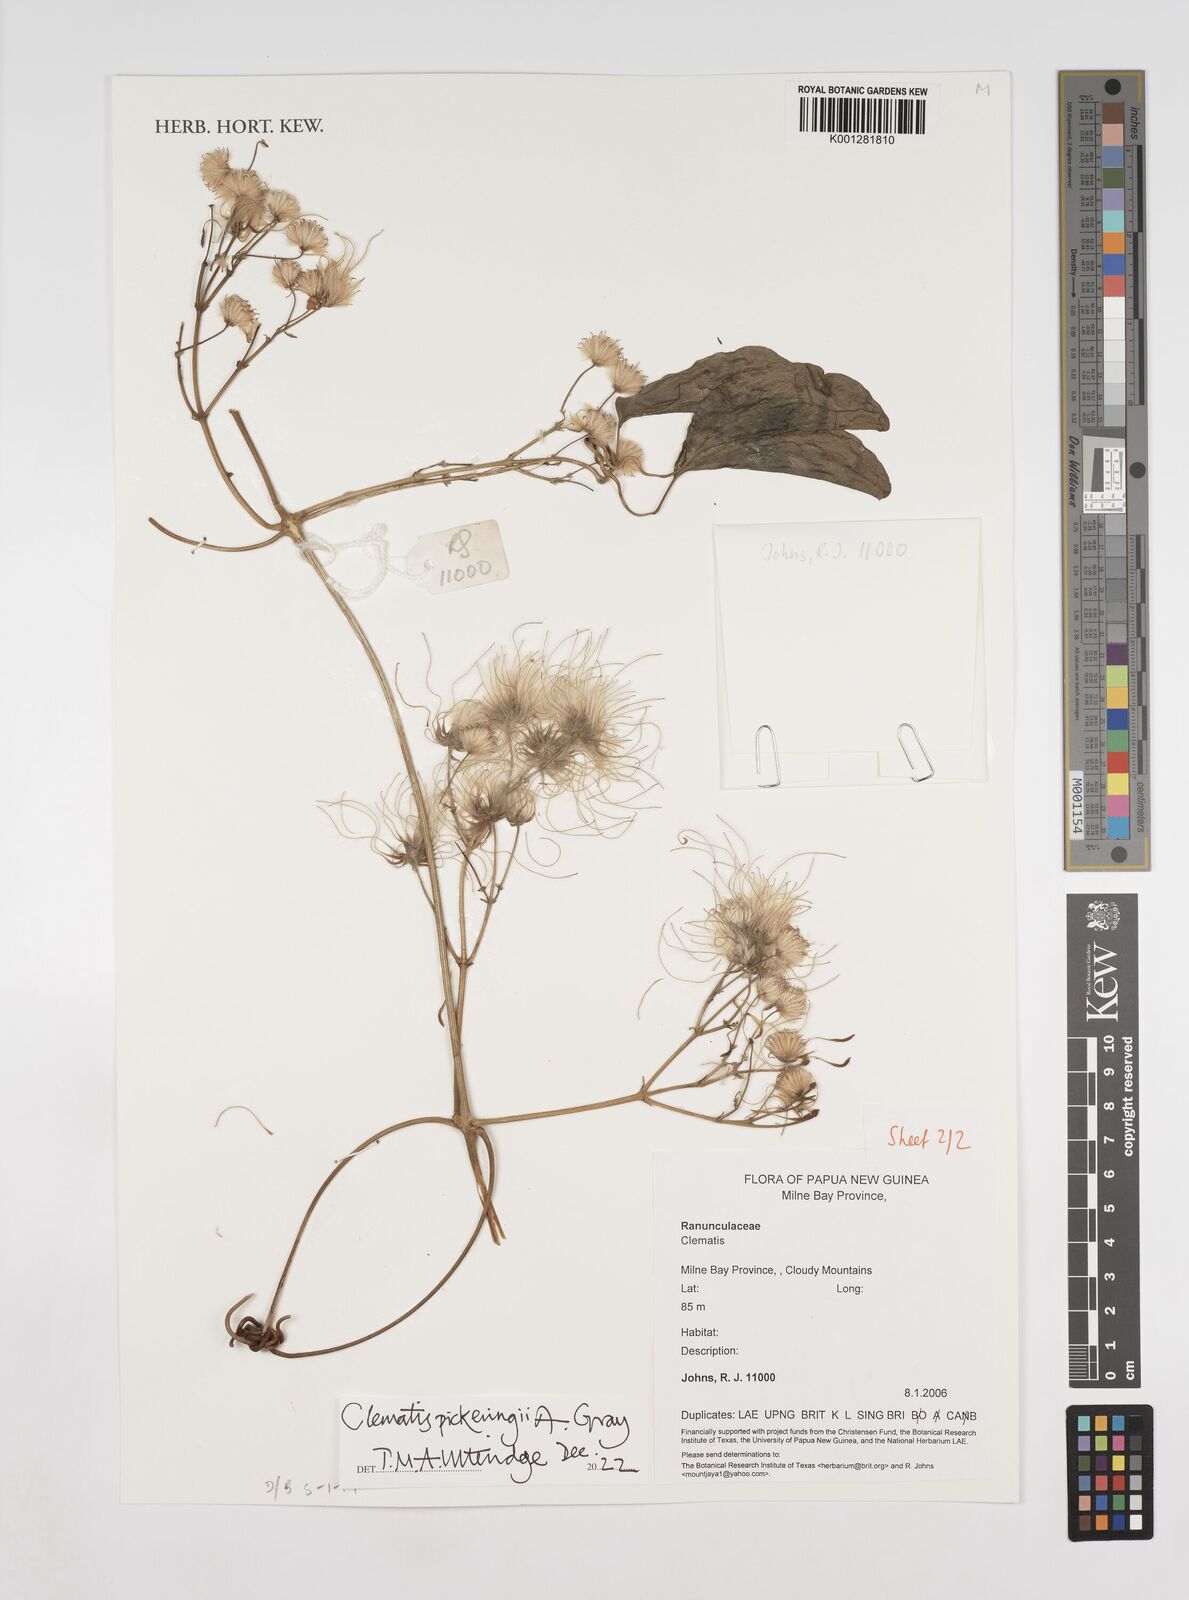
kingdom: Plantae
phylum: Tracheophyta
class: Magnoliopsida
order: Ranunculales
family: Ranunculaceae
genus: Clematis
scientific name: Clematis pickeringii
